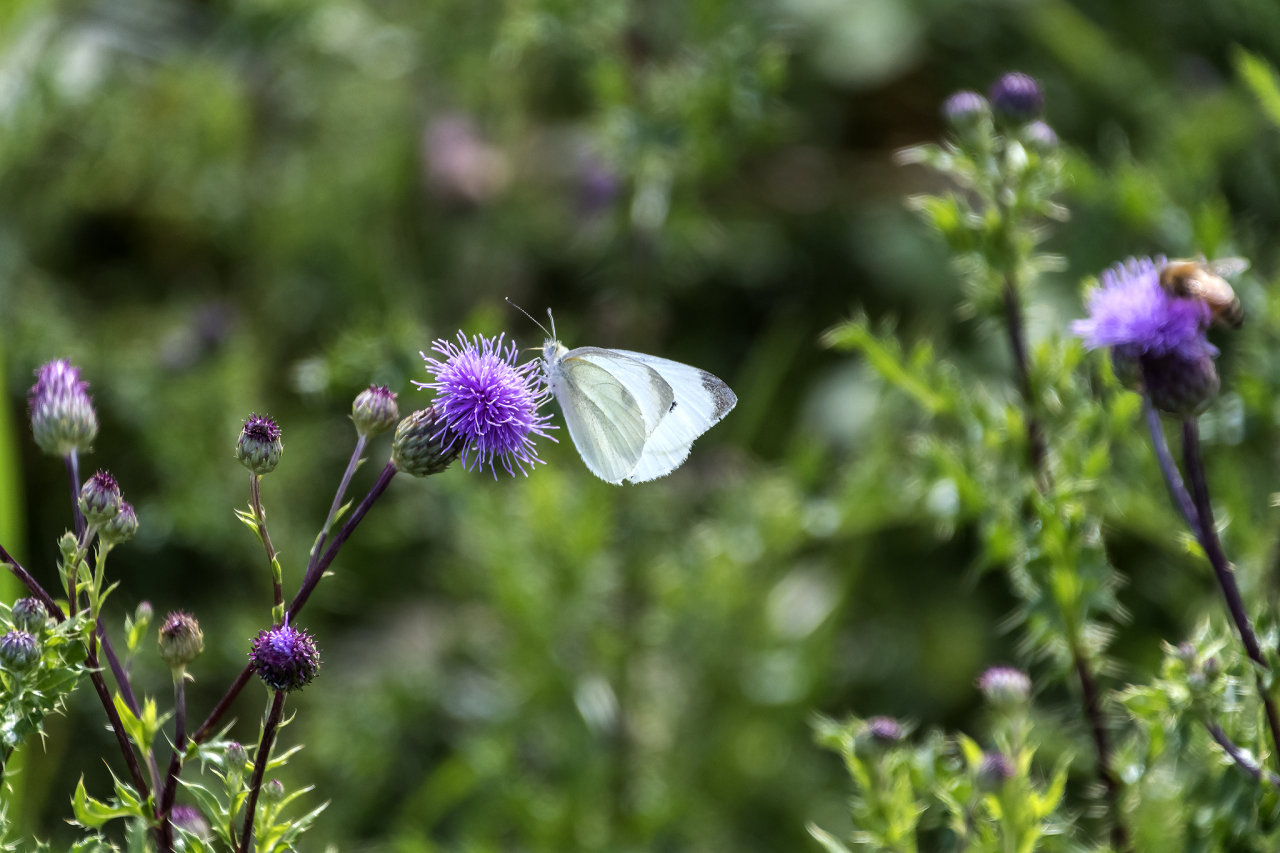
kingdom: Animalia
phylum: Arthropoda
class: Insecta
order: Lepidoptera
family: Pieridae
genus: Pieris
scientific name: Pieris rapae
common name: Cabbage White
